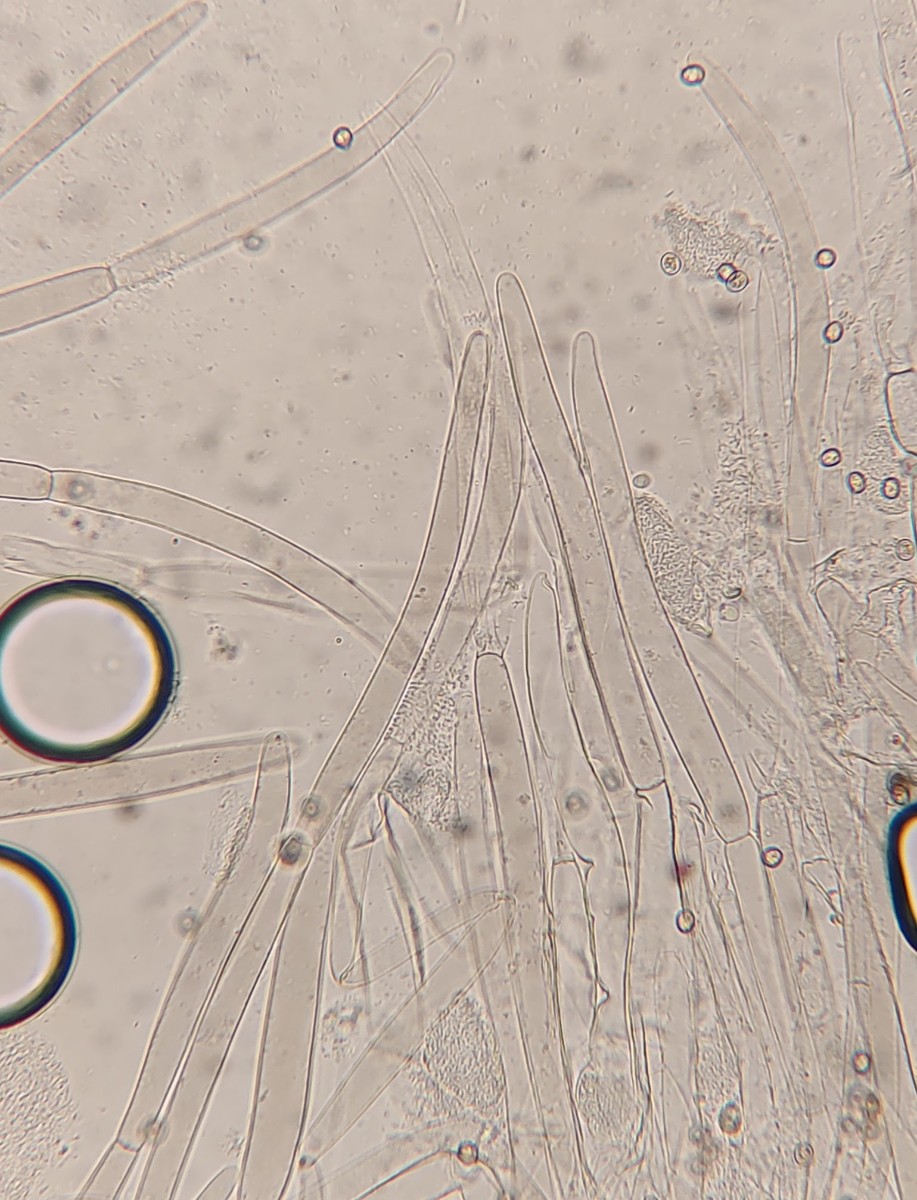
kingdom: Fungi
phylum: Basidiomycota
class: Agaricomycetes
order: Agaricales
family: Pluteaceae
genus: Pluteus
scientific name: Pluteus hispidulus
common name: Fleecy shield
